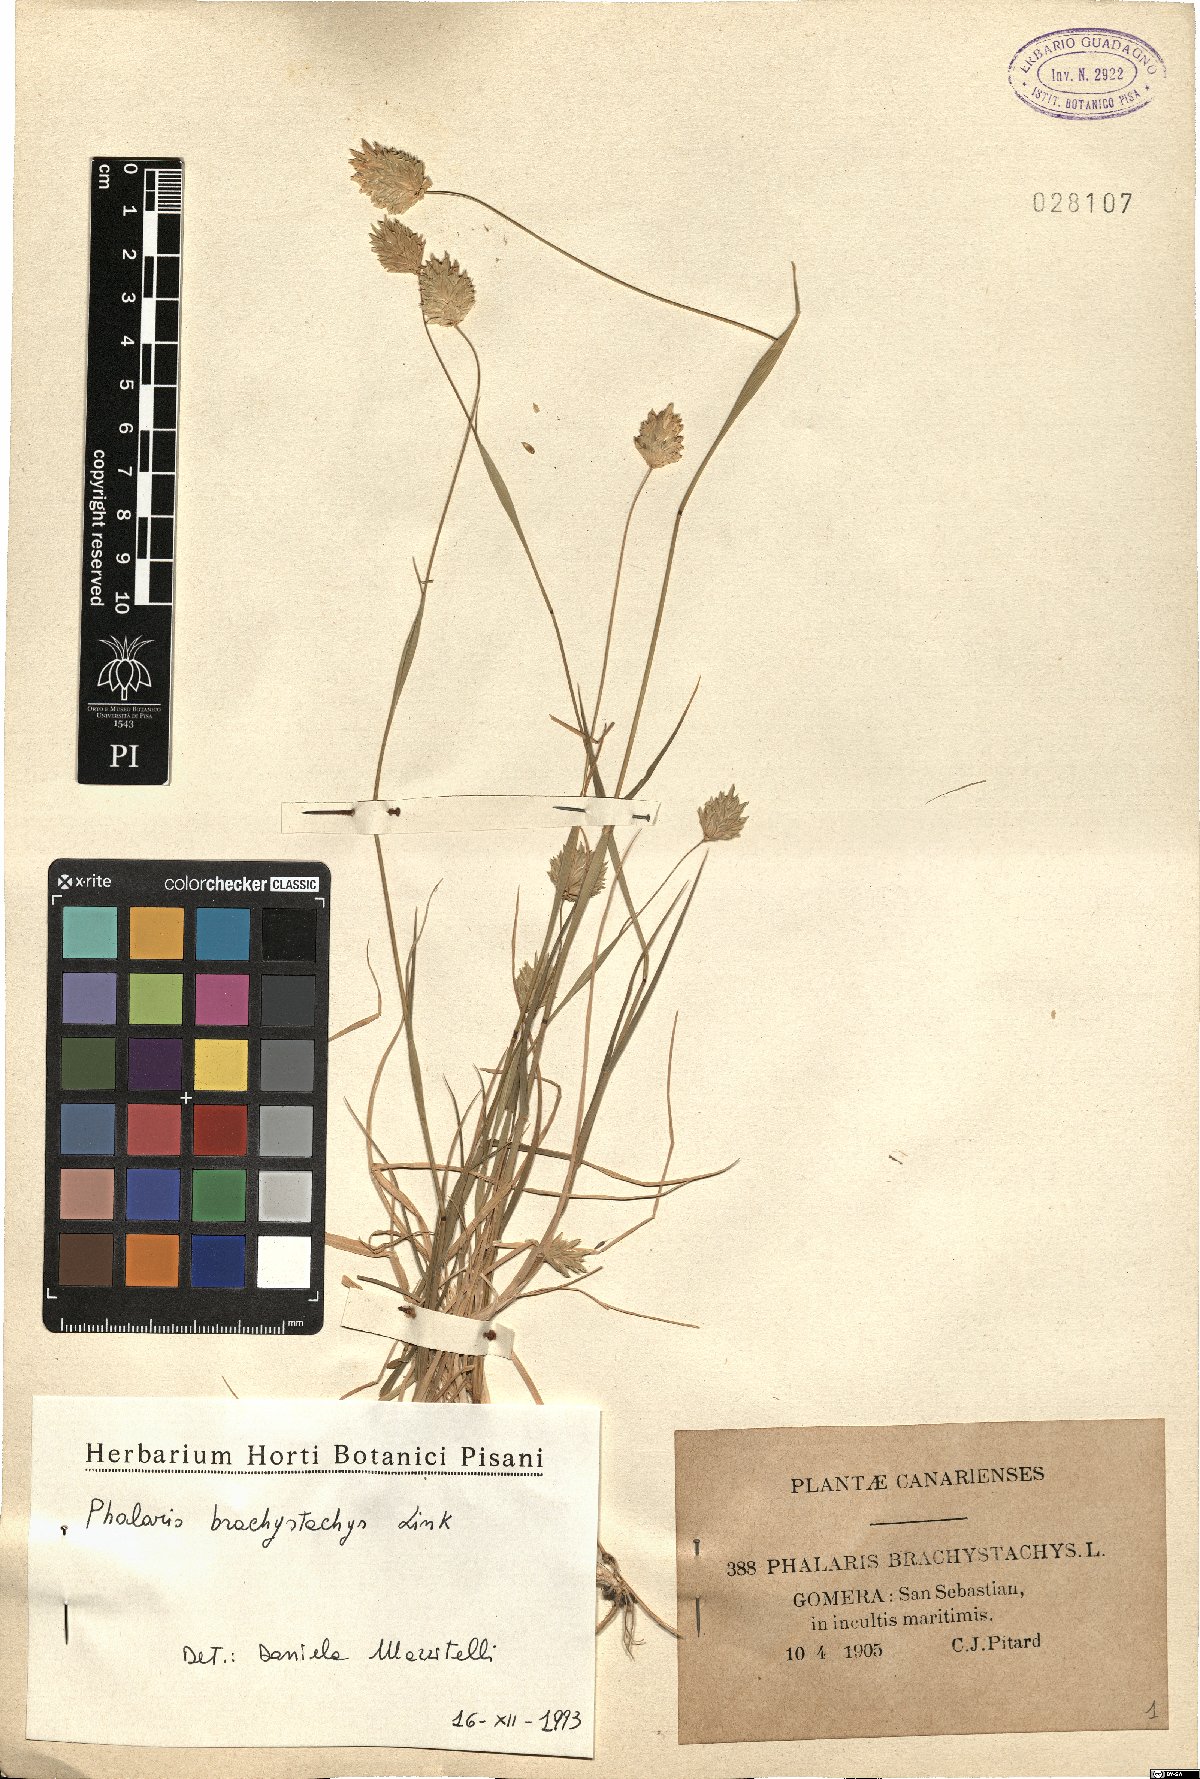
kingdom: Plantae
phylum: Tracheophyta
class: Liliopsida
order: Poales
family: Poaceae
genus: Phalaris
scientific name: Phalaris brachystachys
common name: Confused canary-grass
